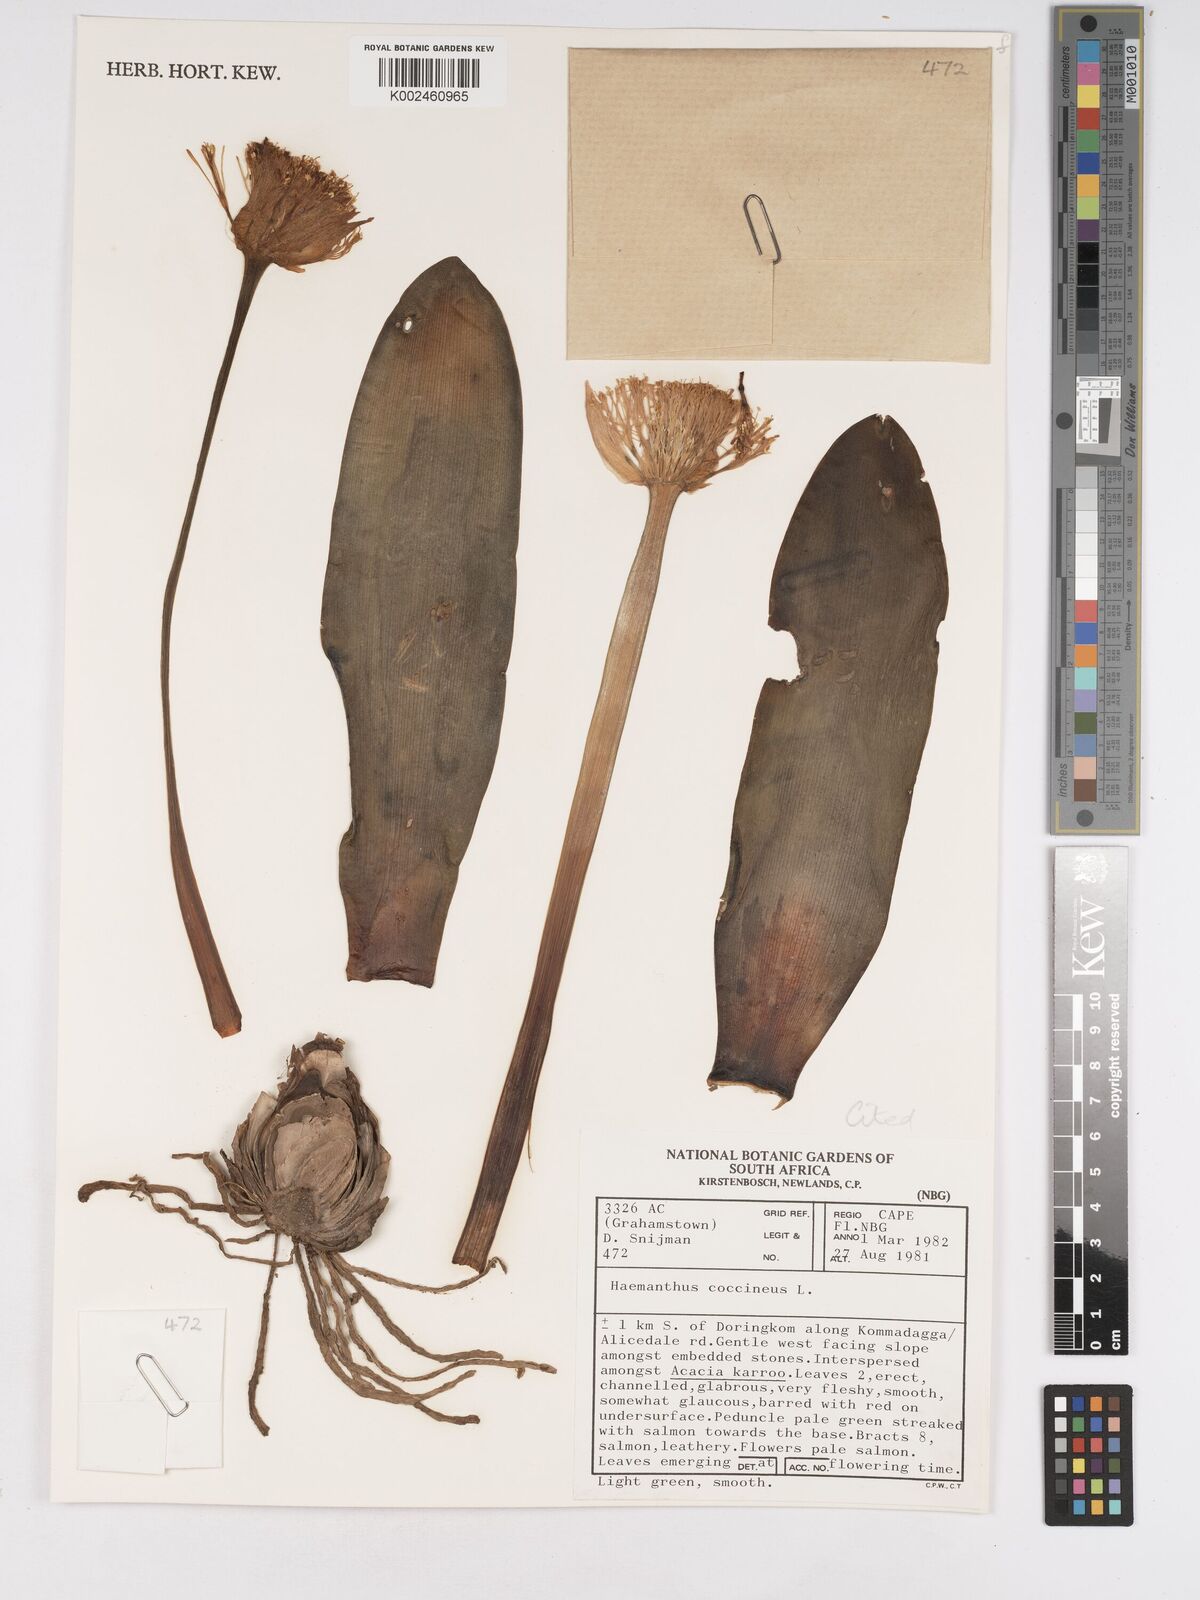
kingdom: Plantae
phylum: Tracheophyta
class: Liliopsida
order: Asparagales
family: Amaryllidaceae
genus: Haemanthus
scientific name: Haemanthus coccineus
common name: Cape-tulip
